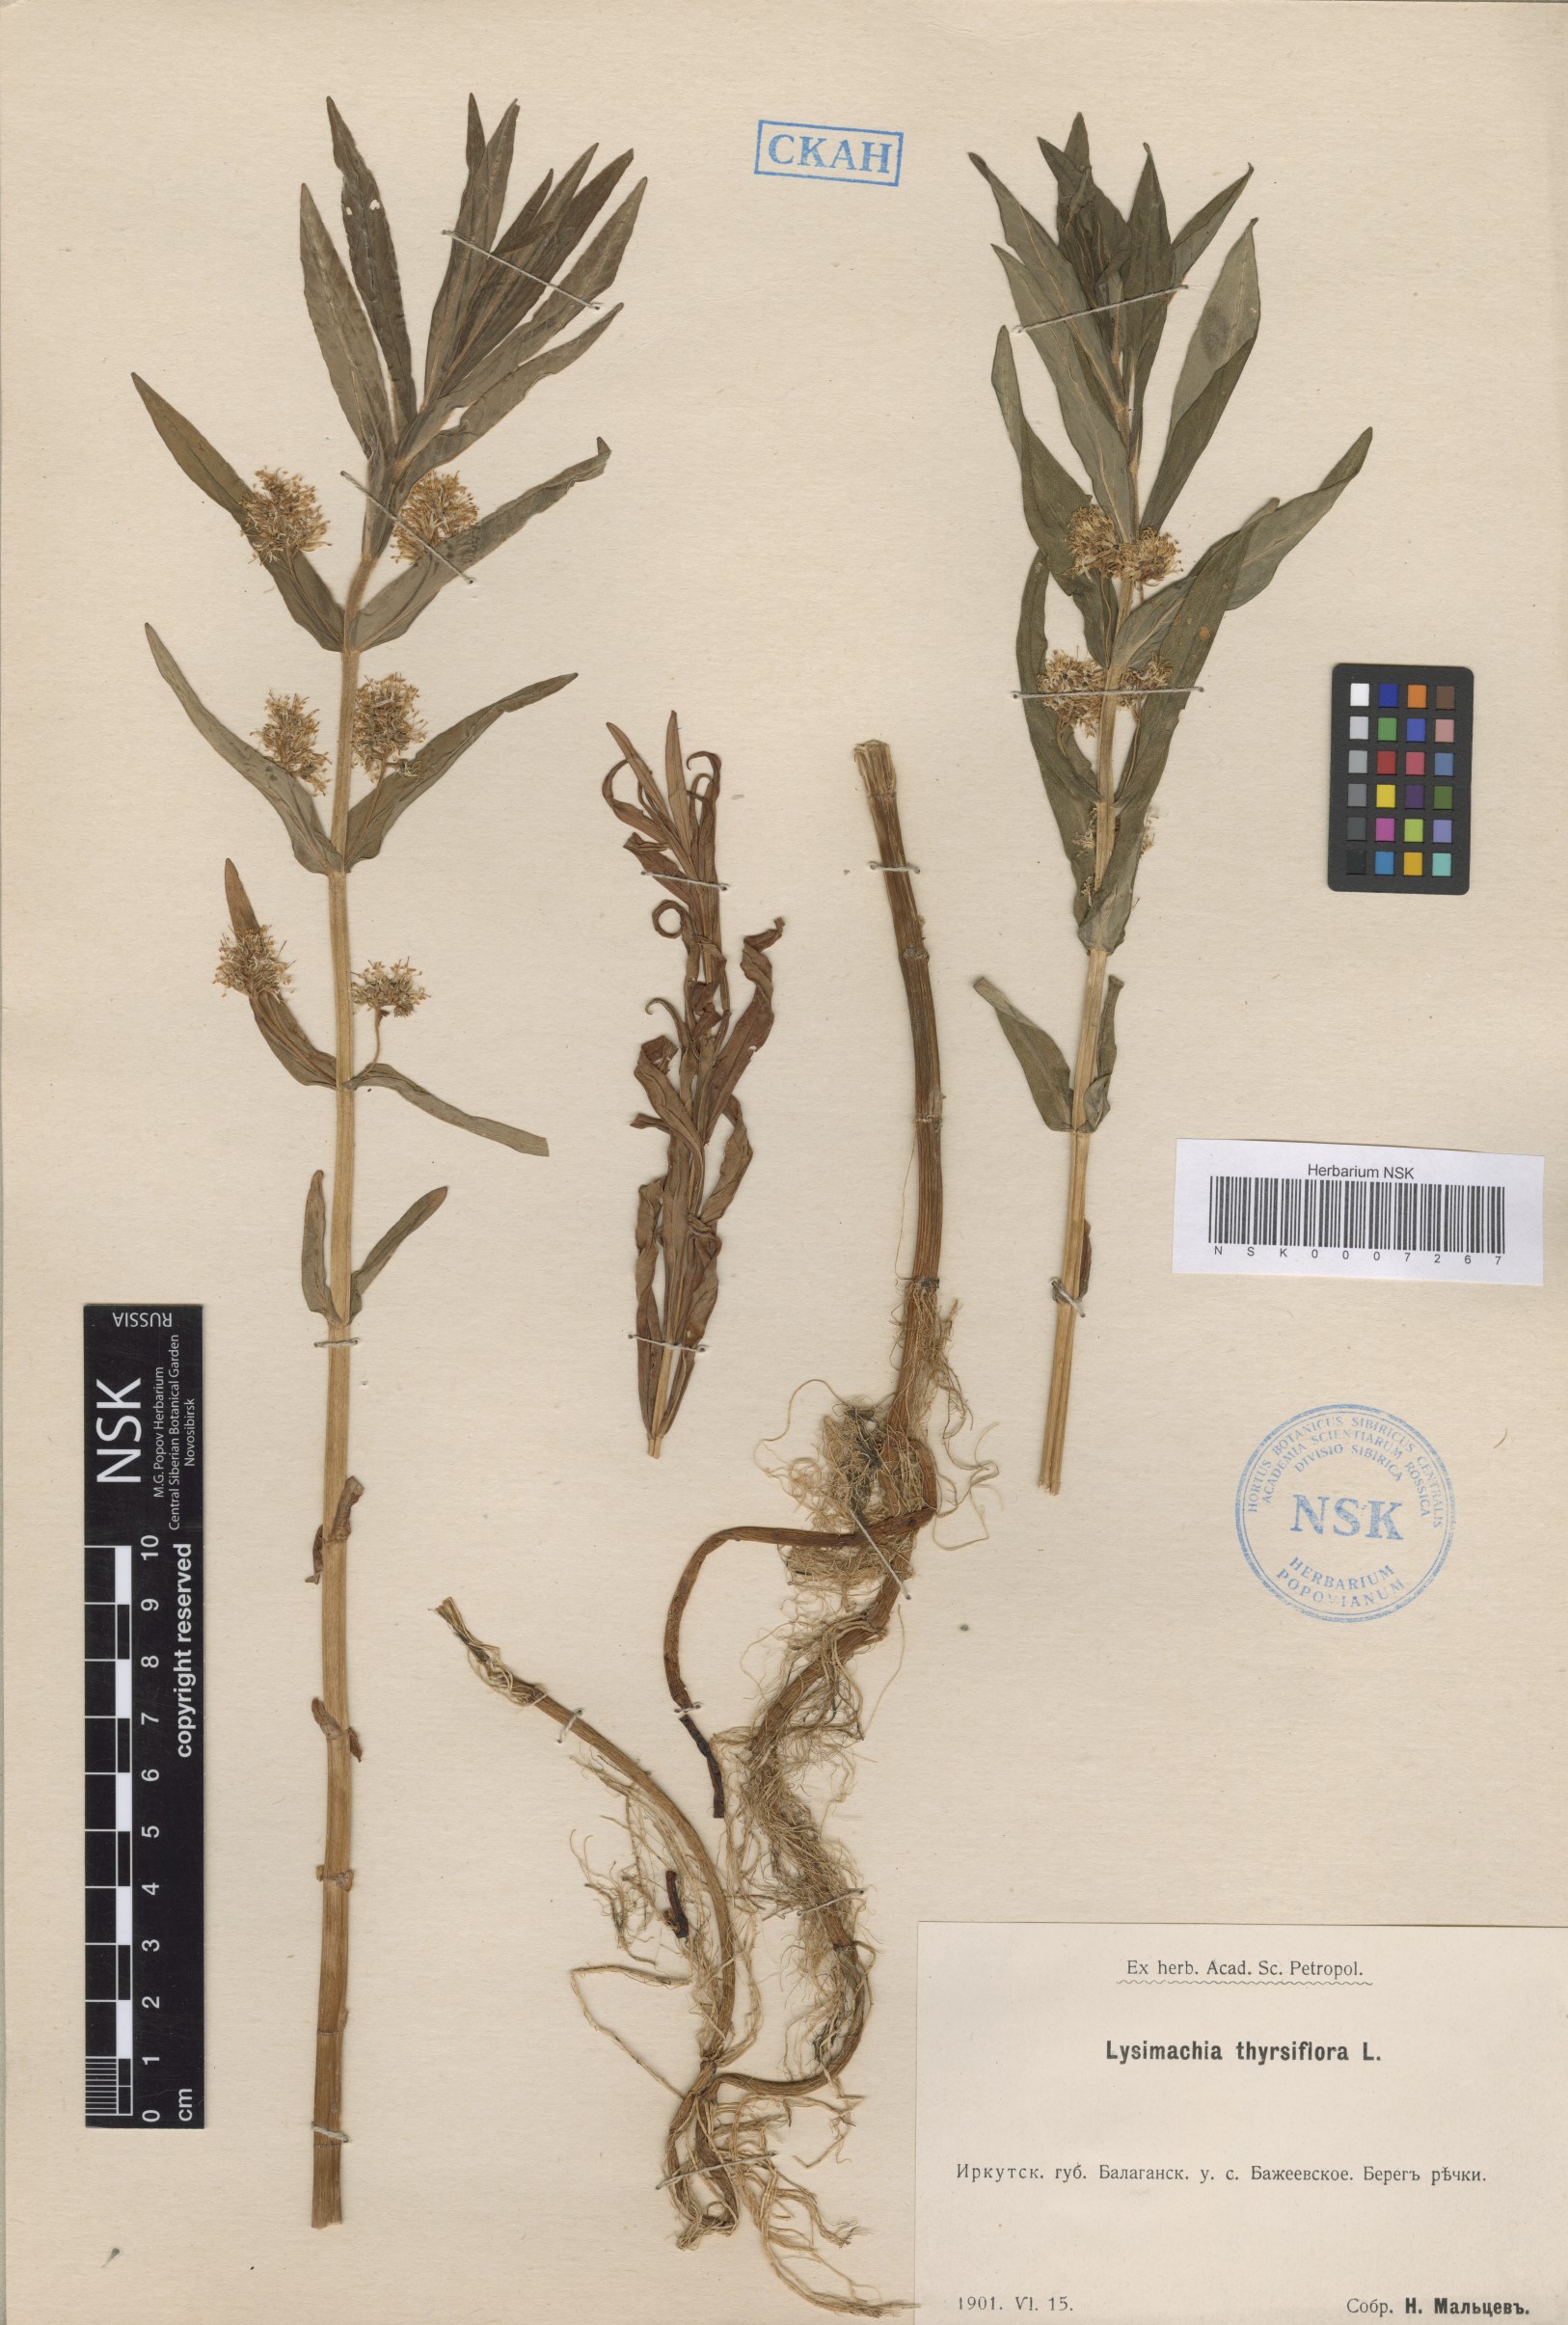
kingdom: Plantae
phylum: Tracheophyta
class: Magnoliopsida
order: Ericales
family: Primulaceae
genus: Lysimachia
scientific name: Lysimachia thyrsiflora
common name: Tufted loosestrife
